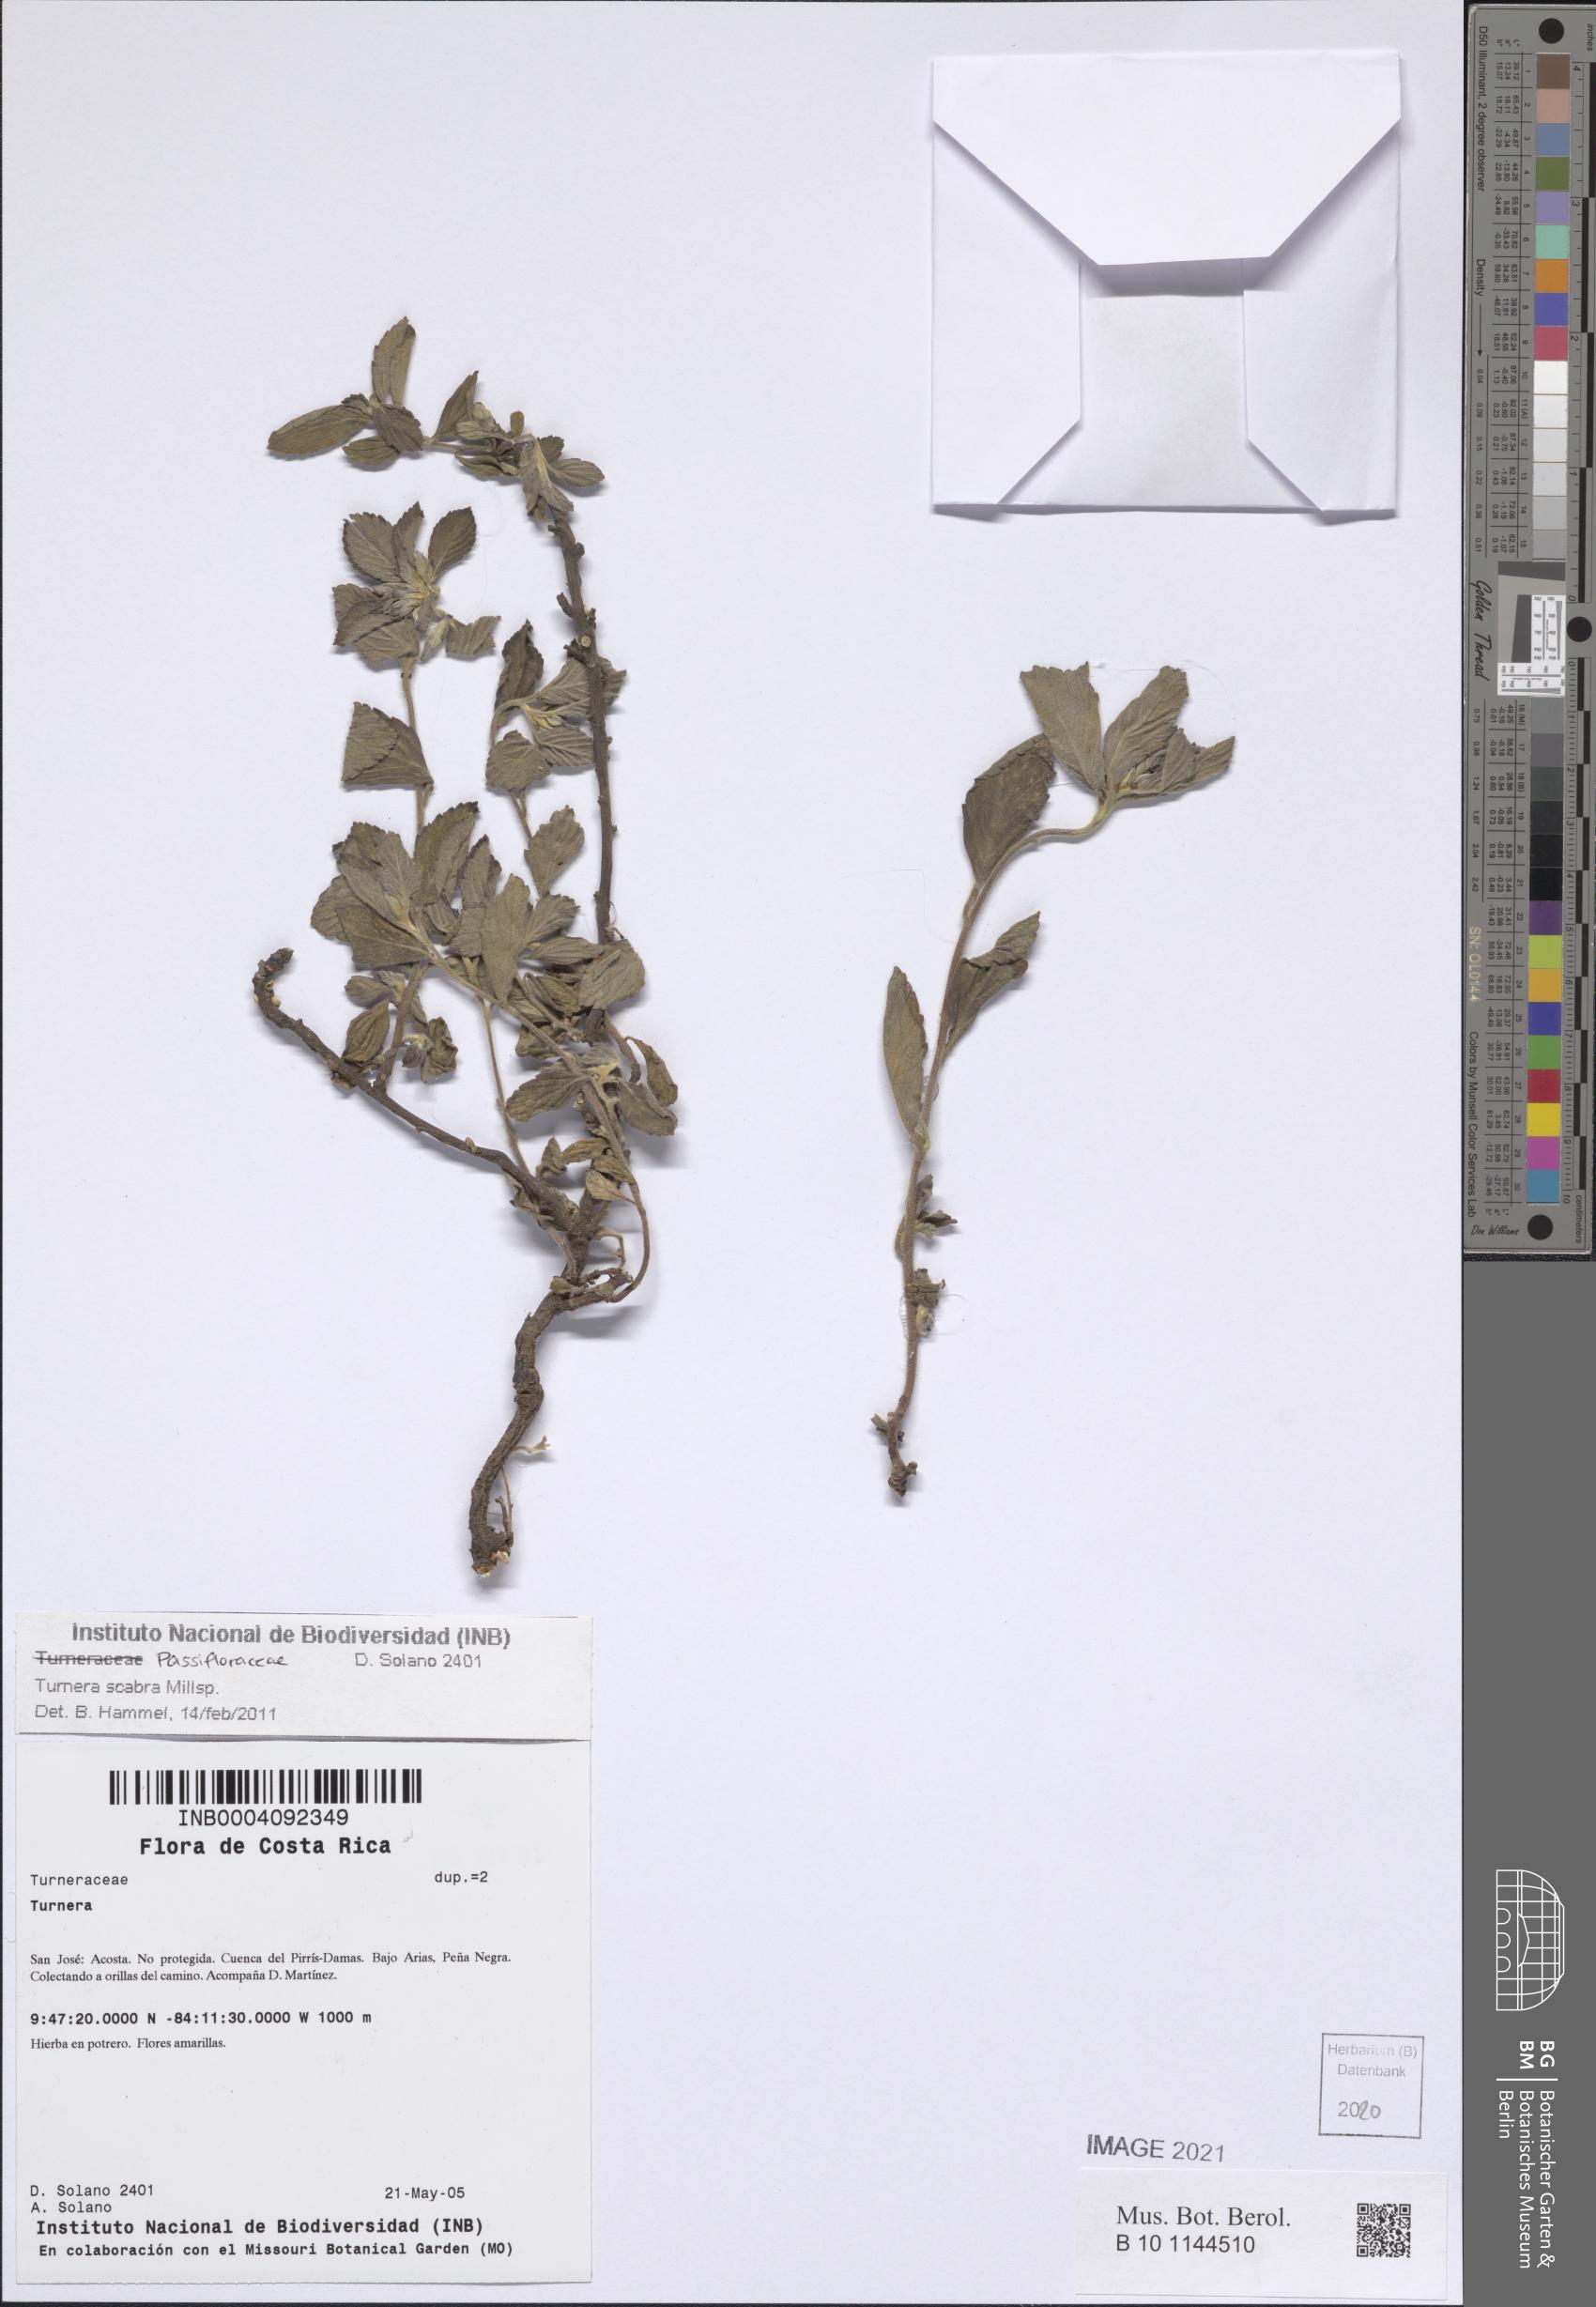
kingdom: Plantae
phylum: Tracheophyta
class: Magnoliopsida
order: Malpighiales
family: Turneraceae
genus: Turnera
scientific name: Turnera scabra
